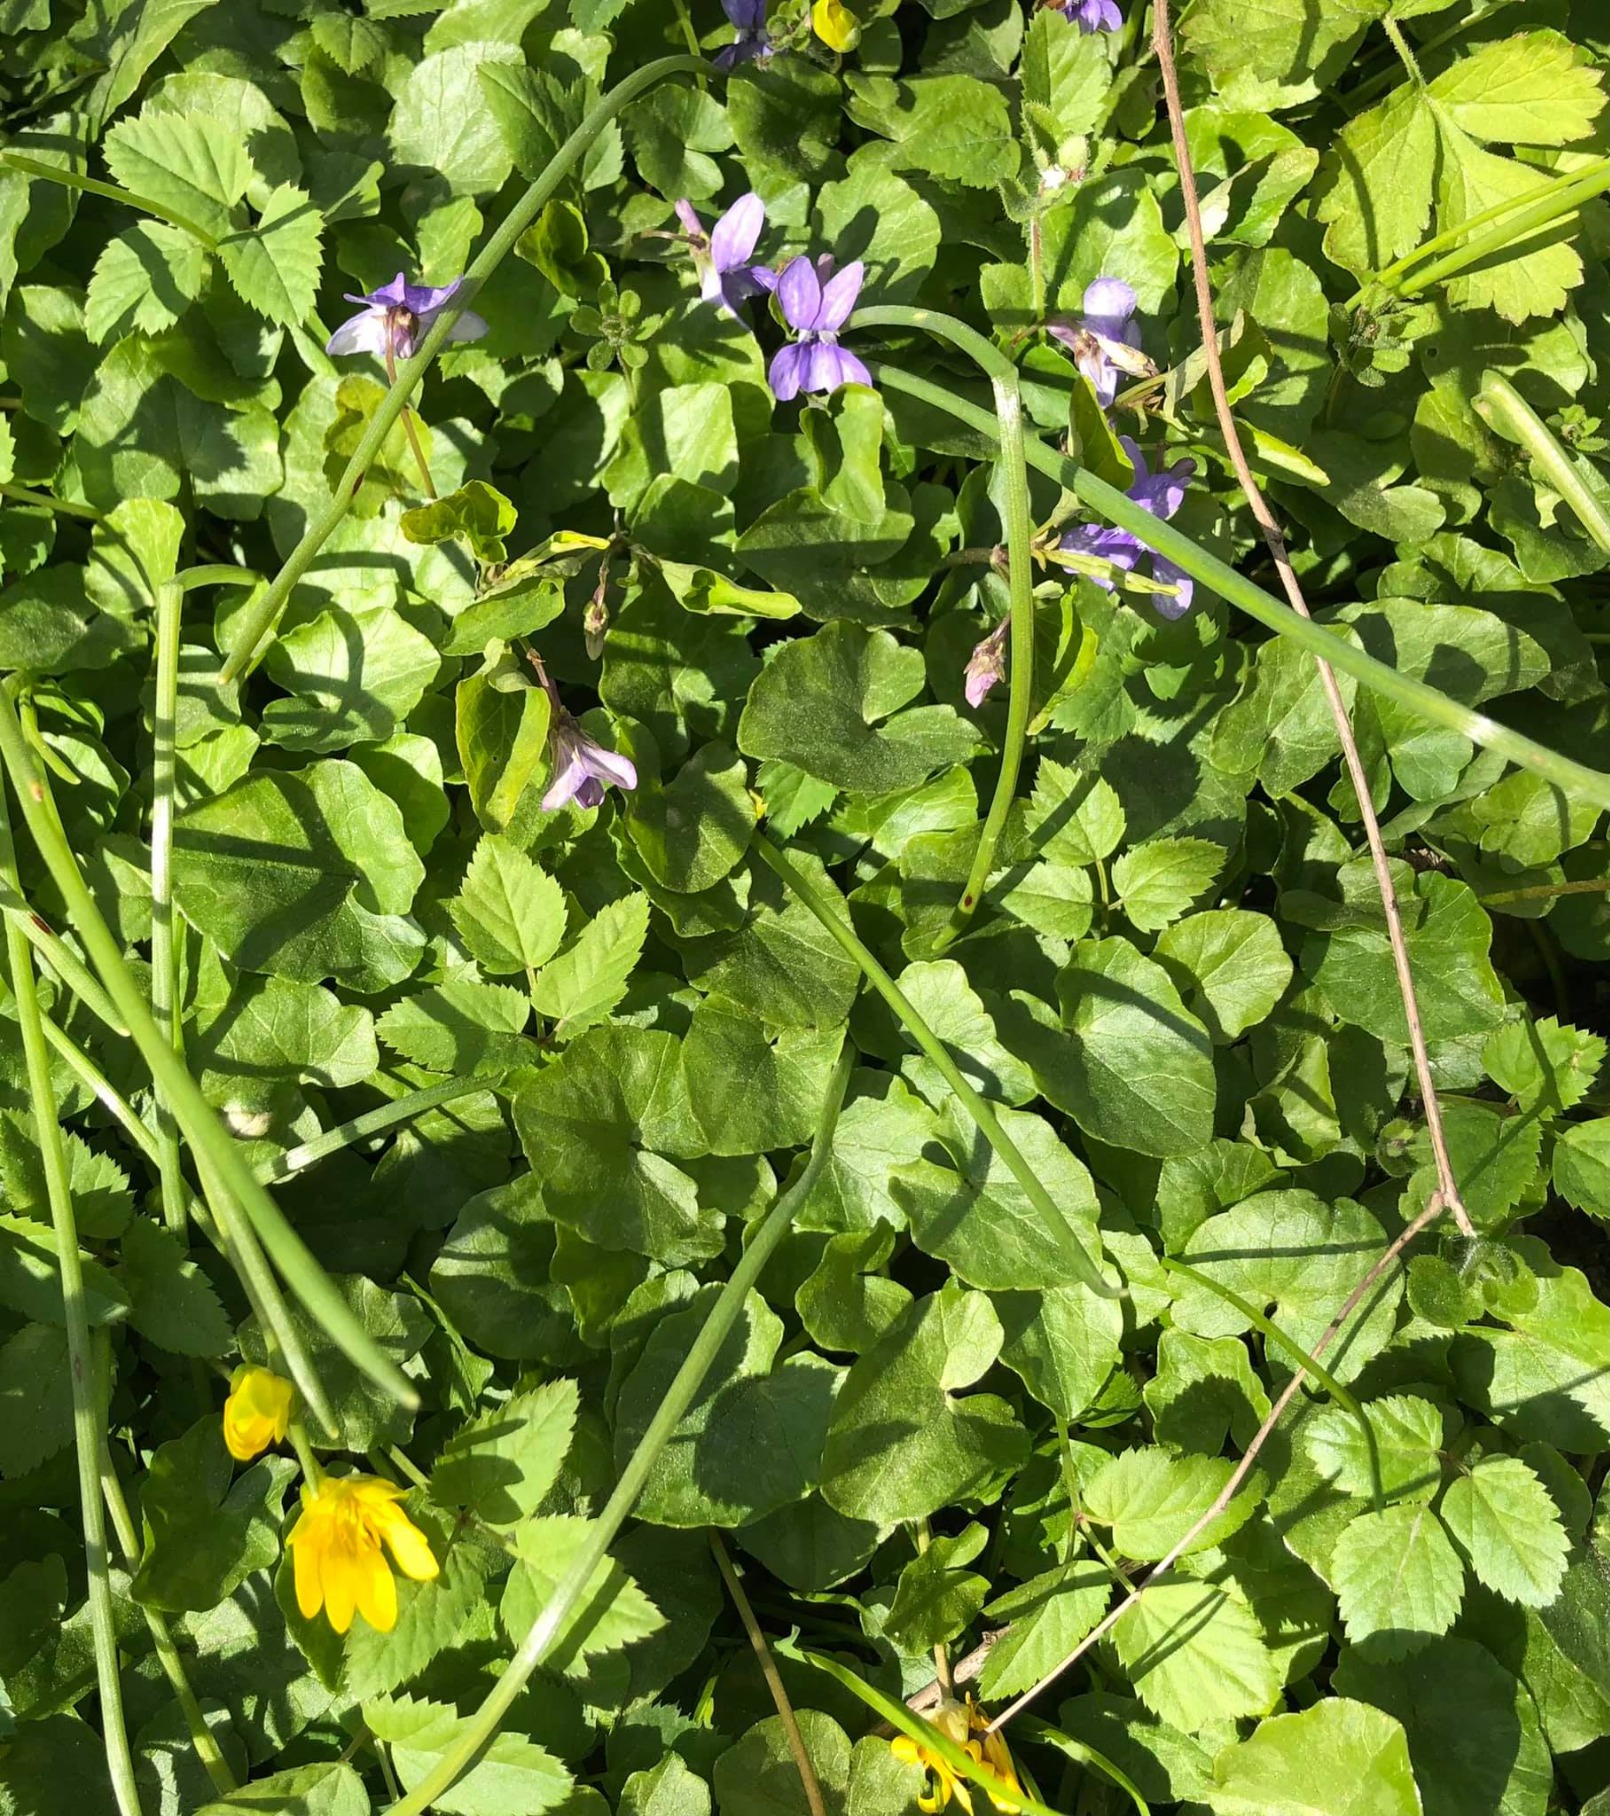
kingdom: Plantae
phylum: Tracheophyta
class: Magnoliopsida
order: Malpighiales
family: Violaceae
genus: Viola
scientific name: Viola odorata
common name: Marts-viol
